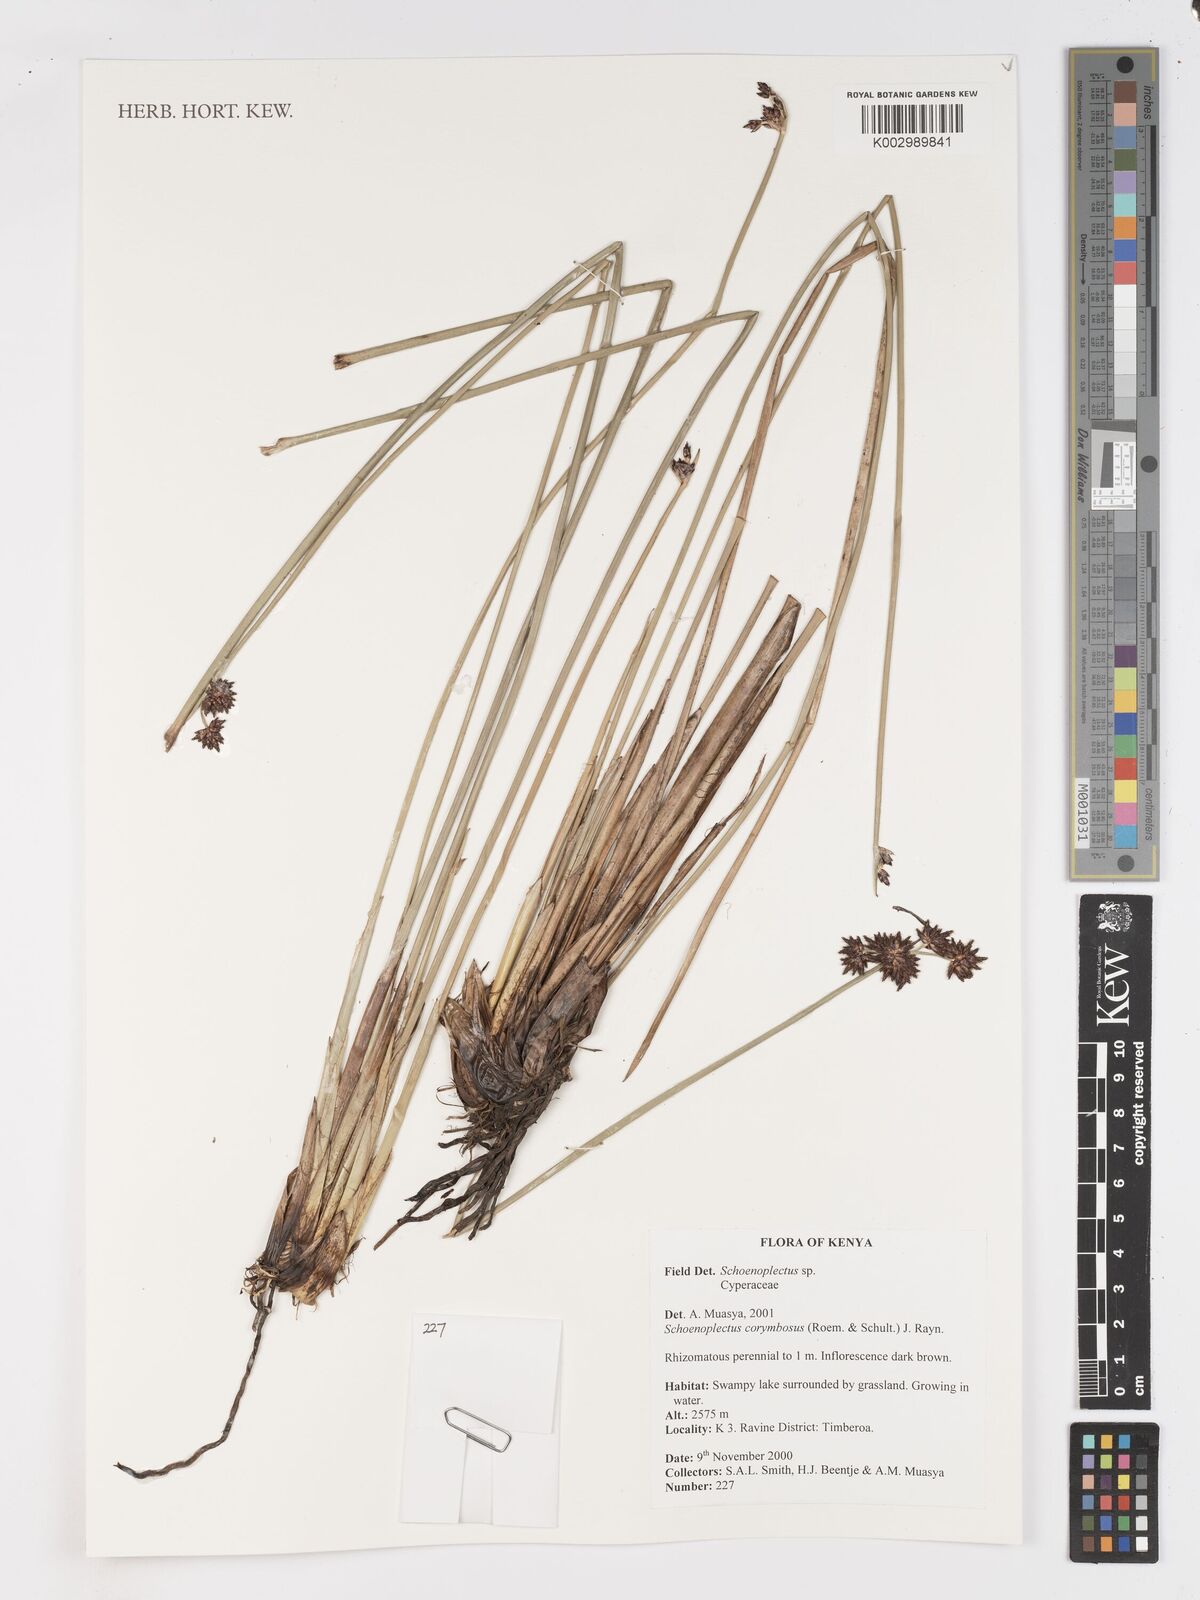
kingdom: Plantae
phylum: Tracheophyta
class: Liliopsida
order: Poales
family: Cyperaceae
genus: Schoenoplectiella
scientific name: Schoenoplectiella corymbosa
